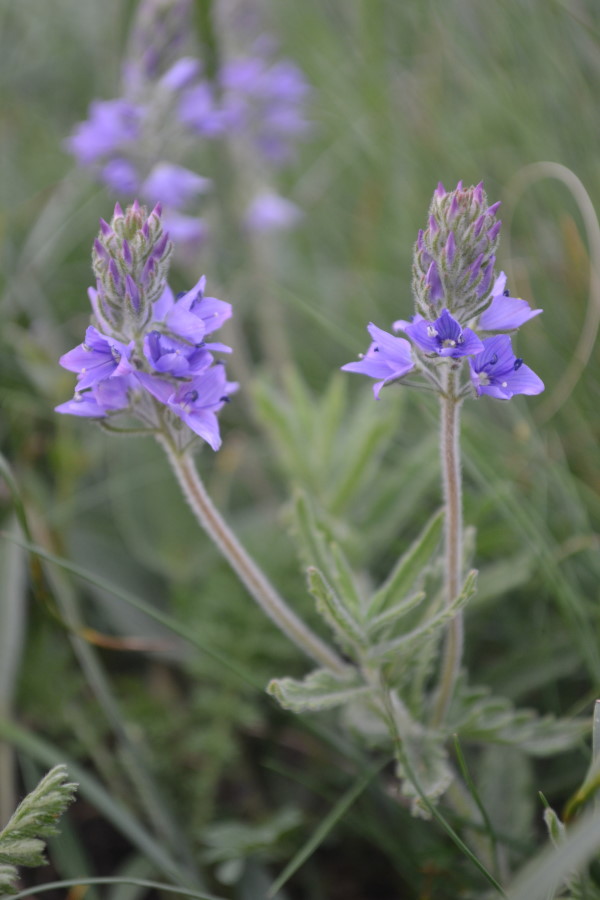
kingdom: Plantae
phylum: Tracheophyta
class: Magnoliopsida
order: Lamiales
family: Plantaginaceae
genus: Veronica
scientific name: Veronica austriaca
